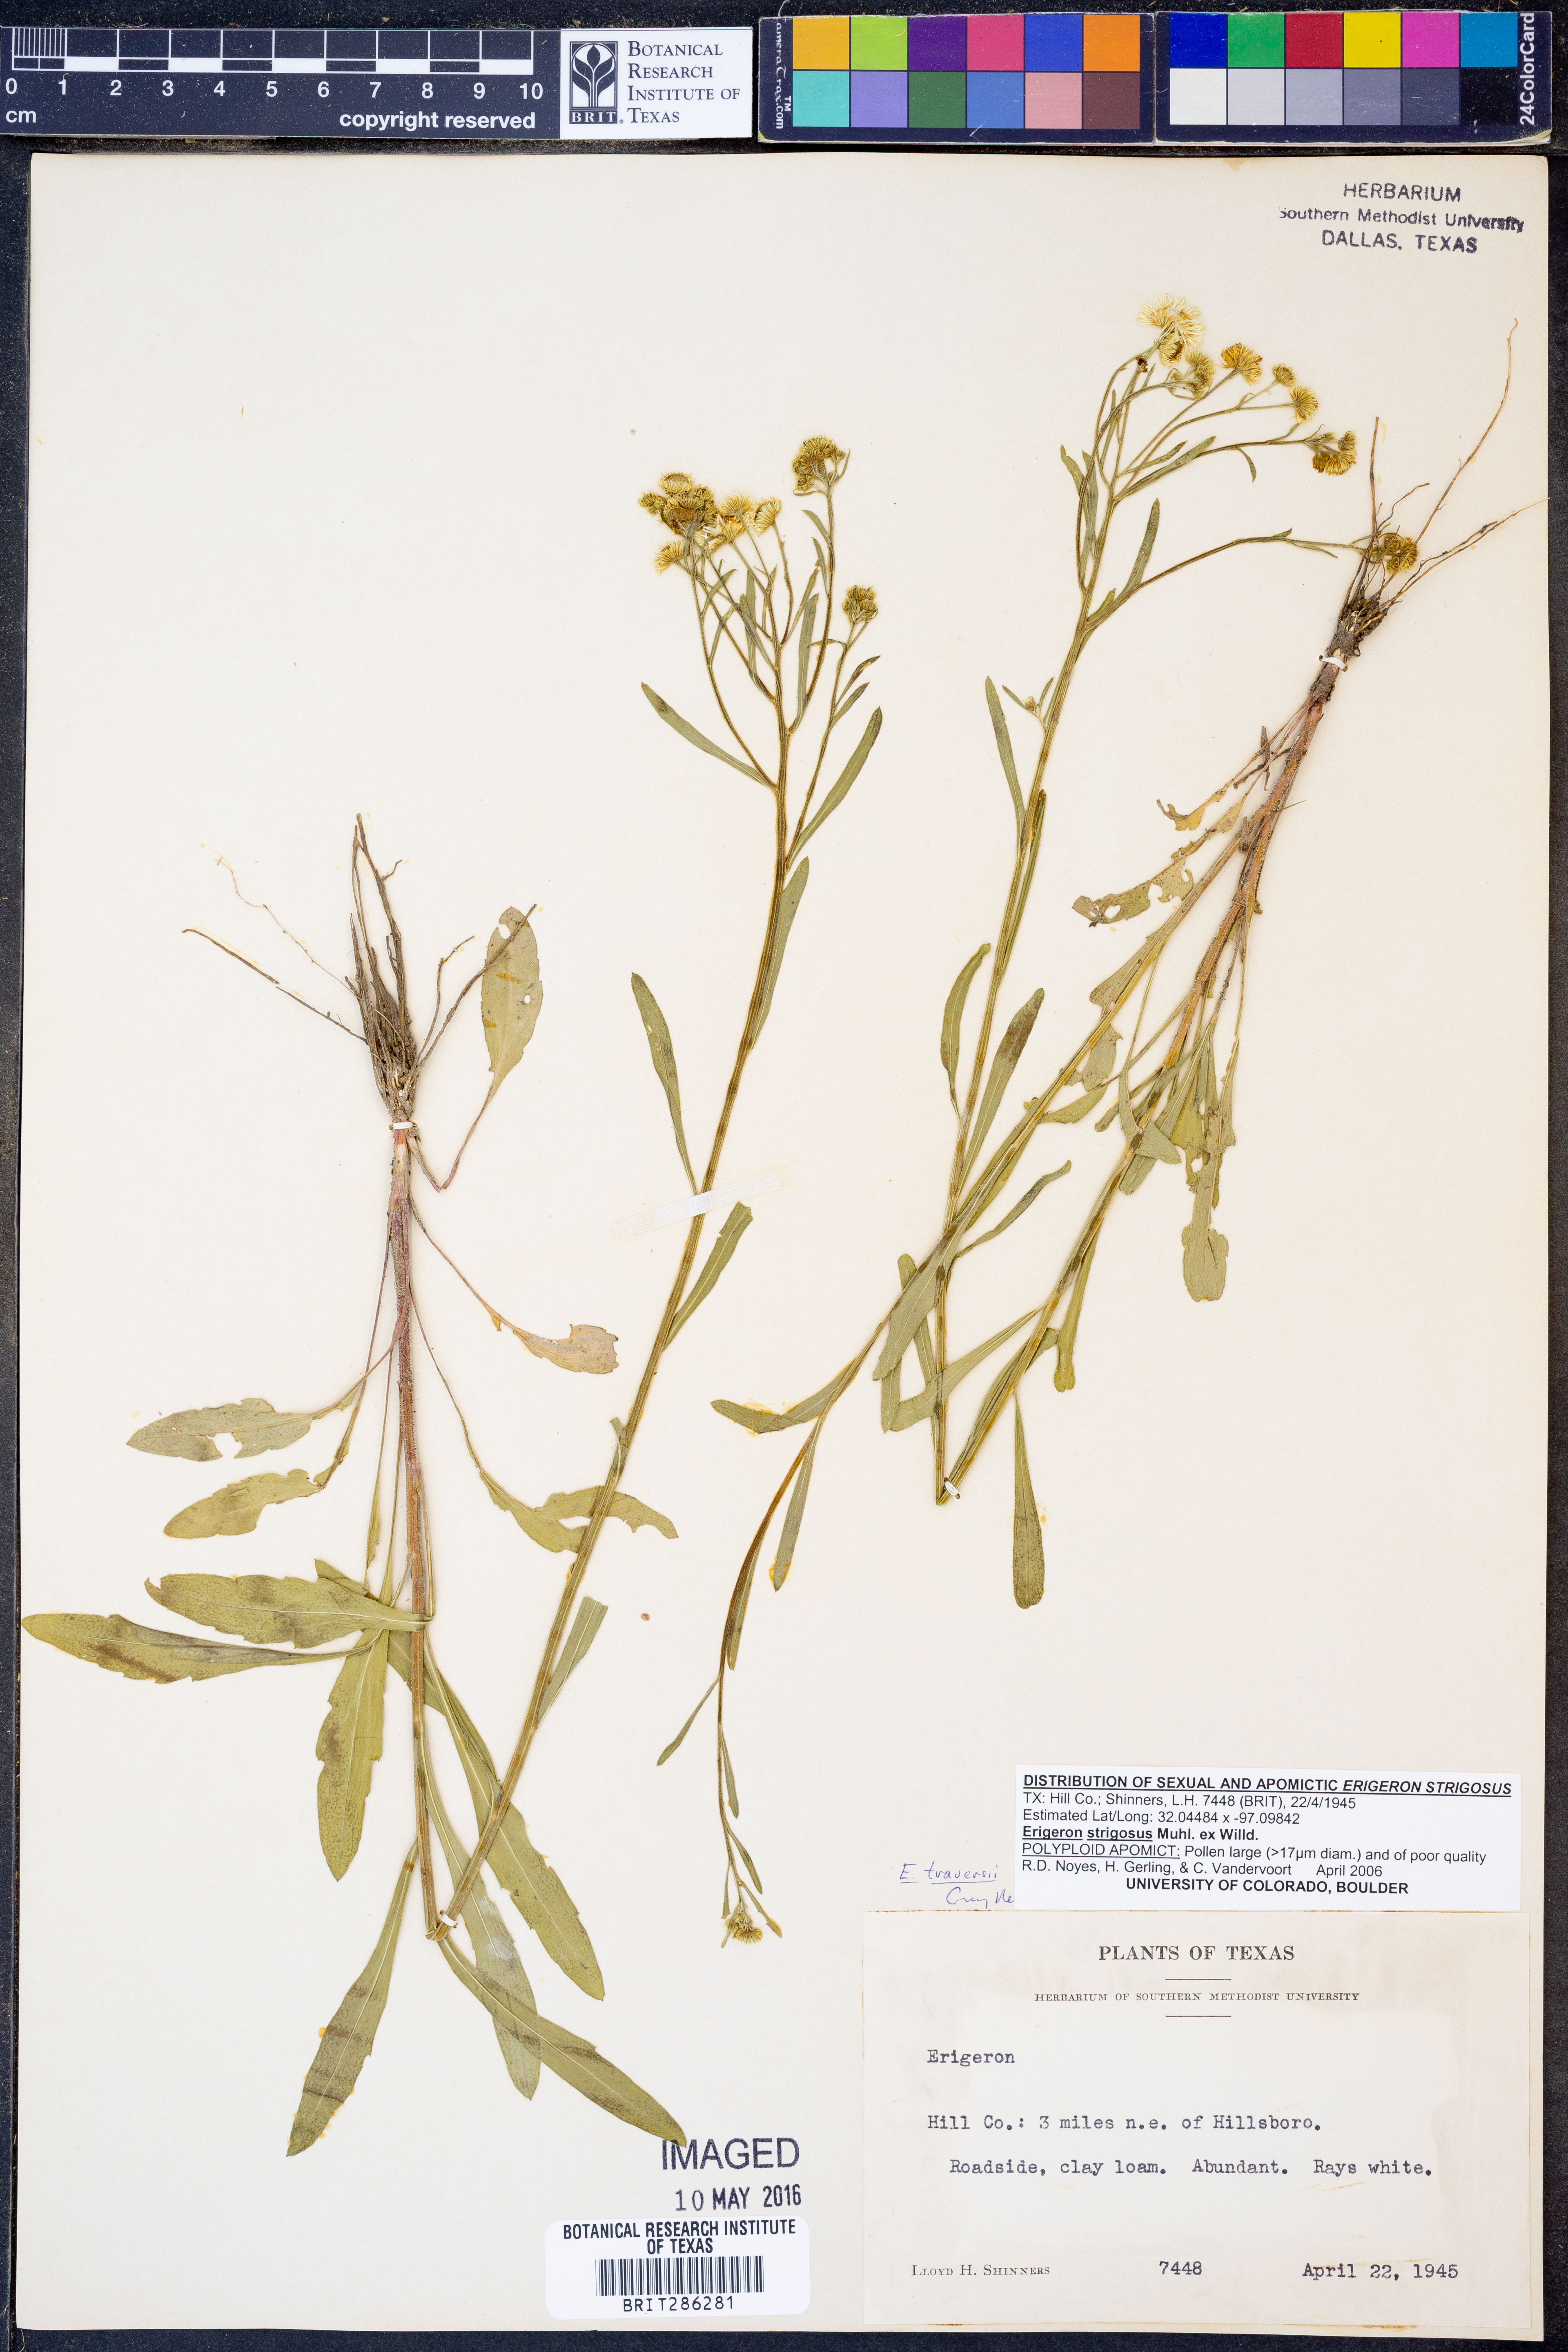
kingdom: Plantae
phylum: Tracheophyta
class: Magnoliopsida
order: Asterales
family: Asteraceae
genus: Erigeron
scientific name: Erigeron strigosus
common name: Common eastern fleabane
